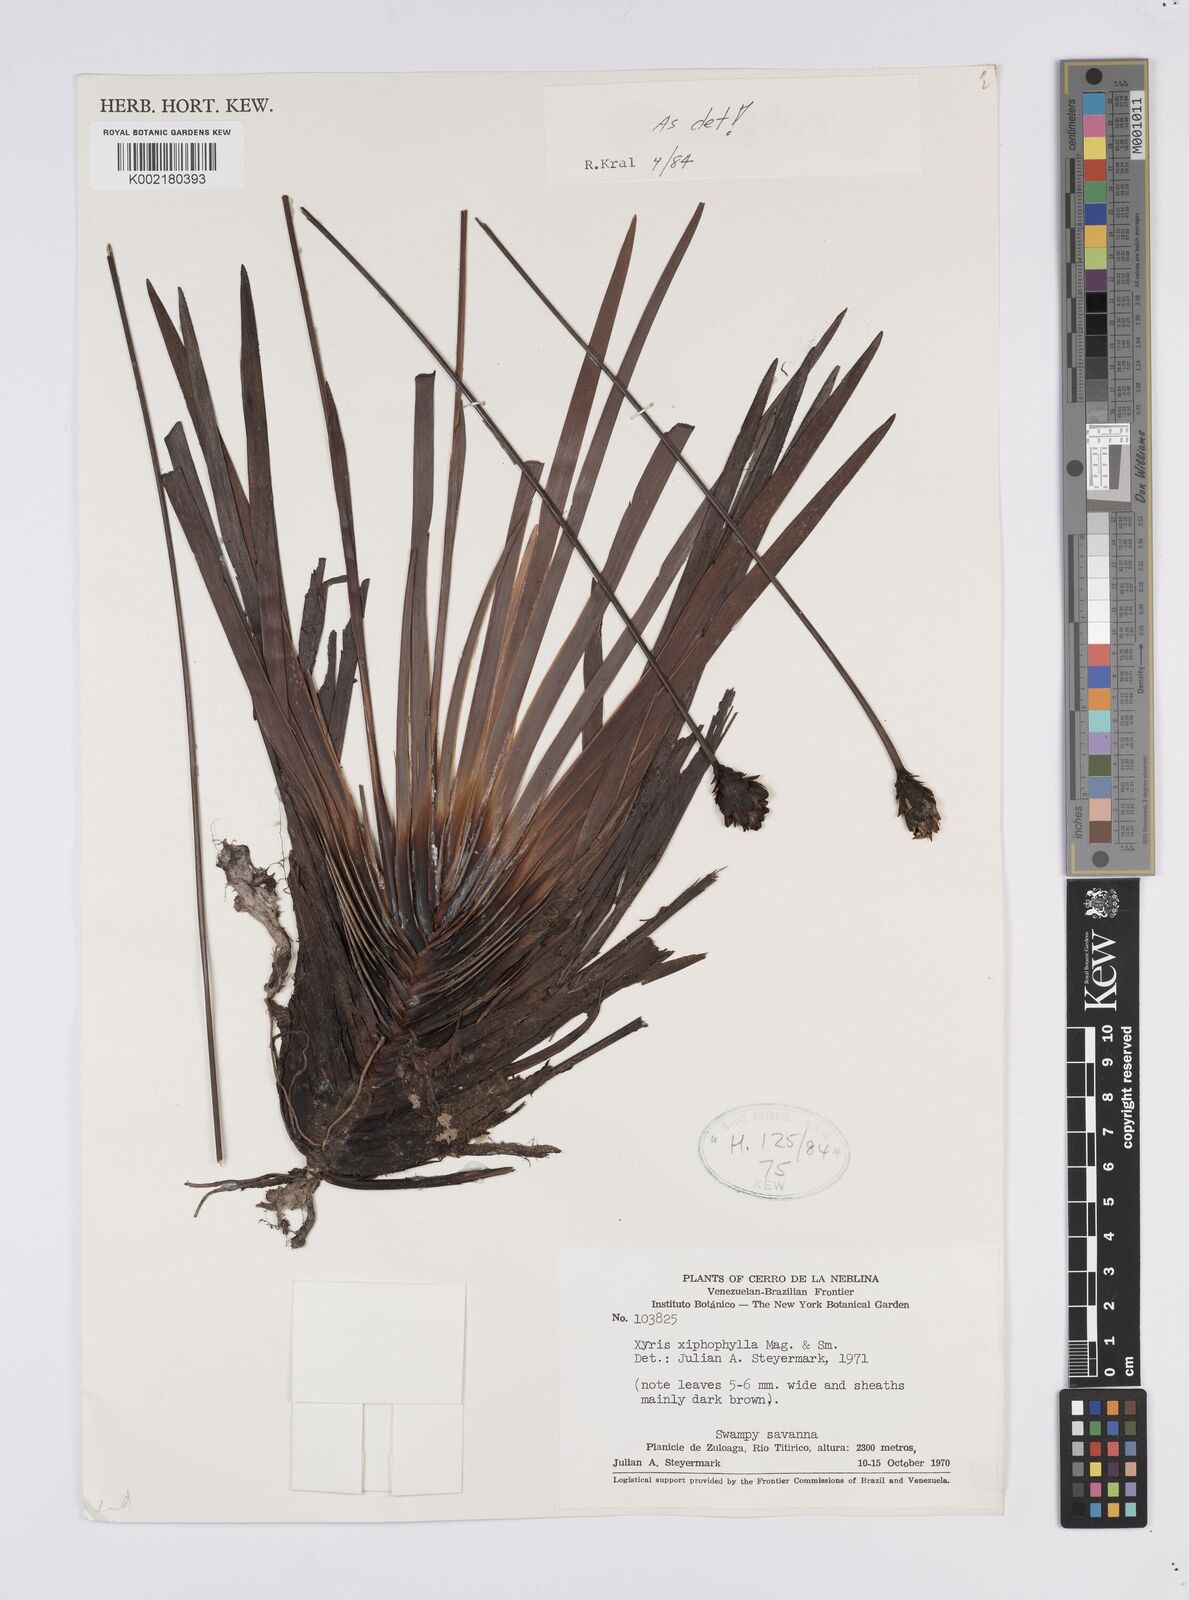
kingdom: Plantae
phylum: Tracheophyta
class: Liliopsida
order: Poales
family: Xyridaceae
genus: Xyris
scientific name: Xyris xiphophylla
